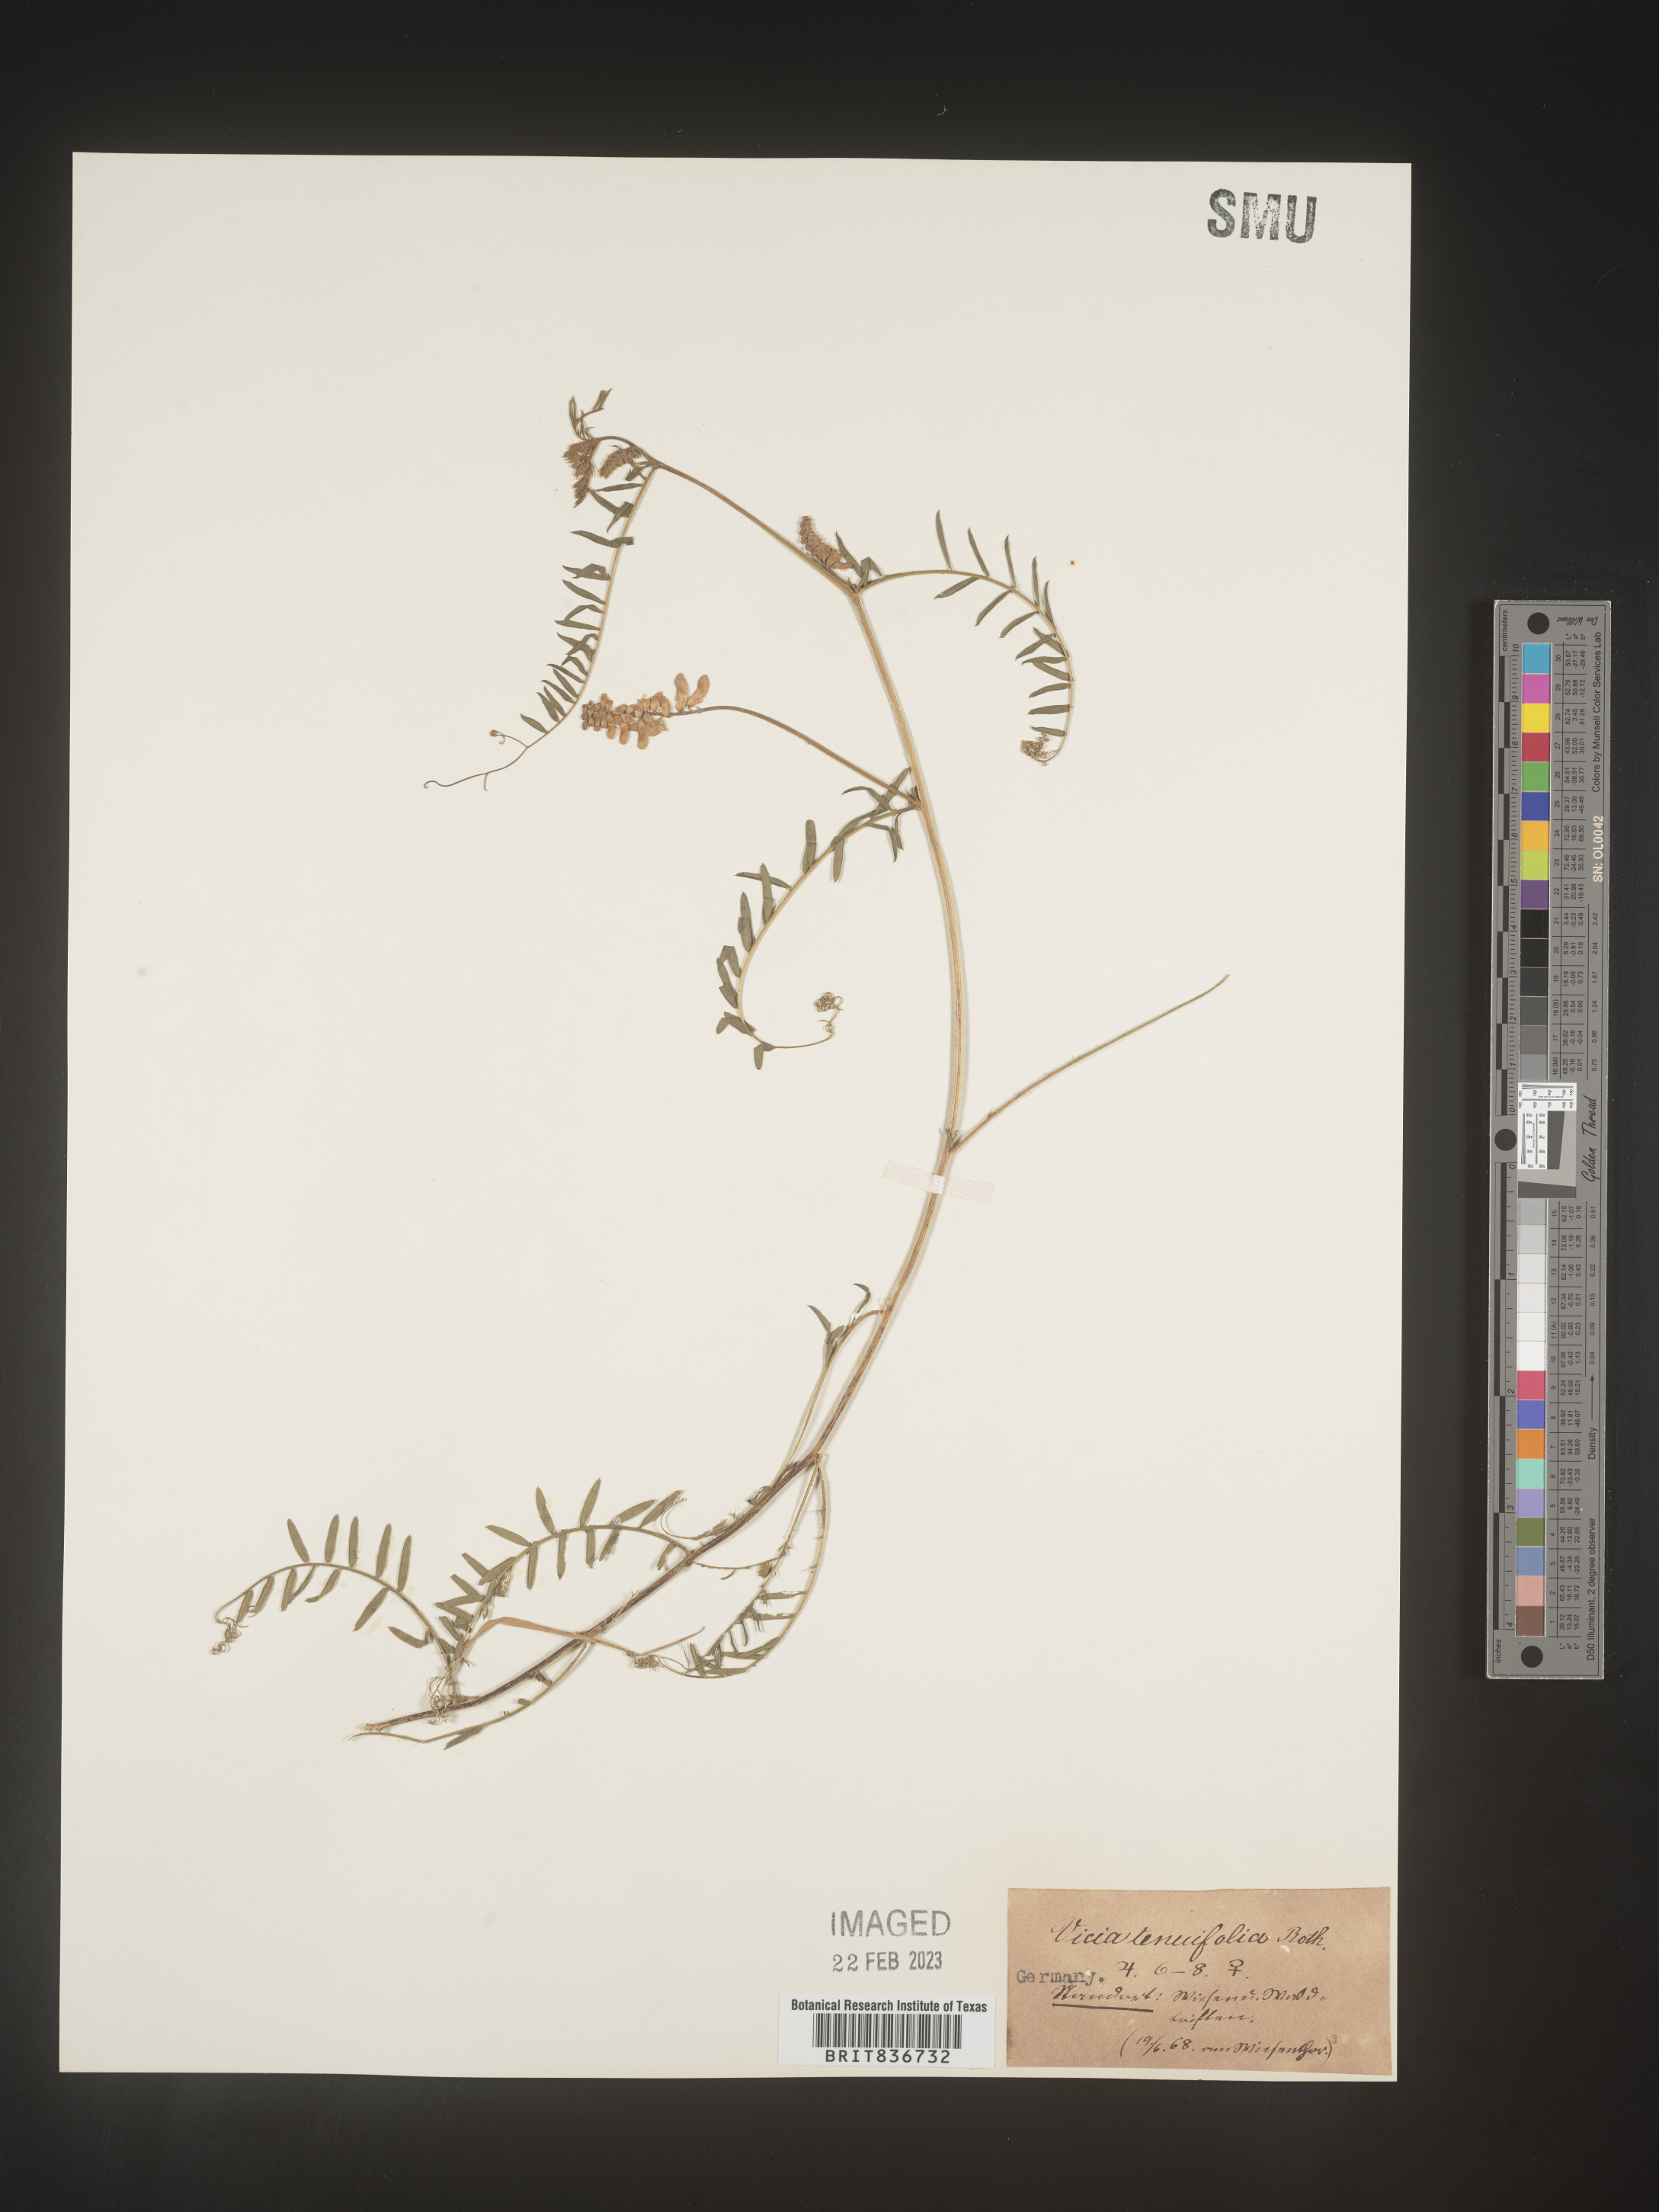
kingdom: Plantae
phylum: Tracheophyta
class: Magnoliopsida
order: Fabales
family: Fabaceae
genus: Vicia
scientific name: Vicia
